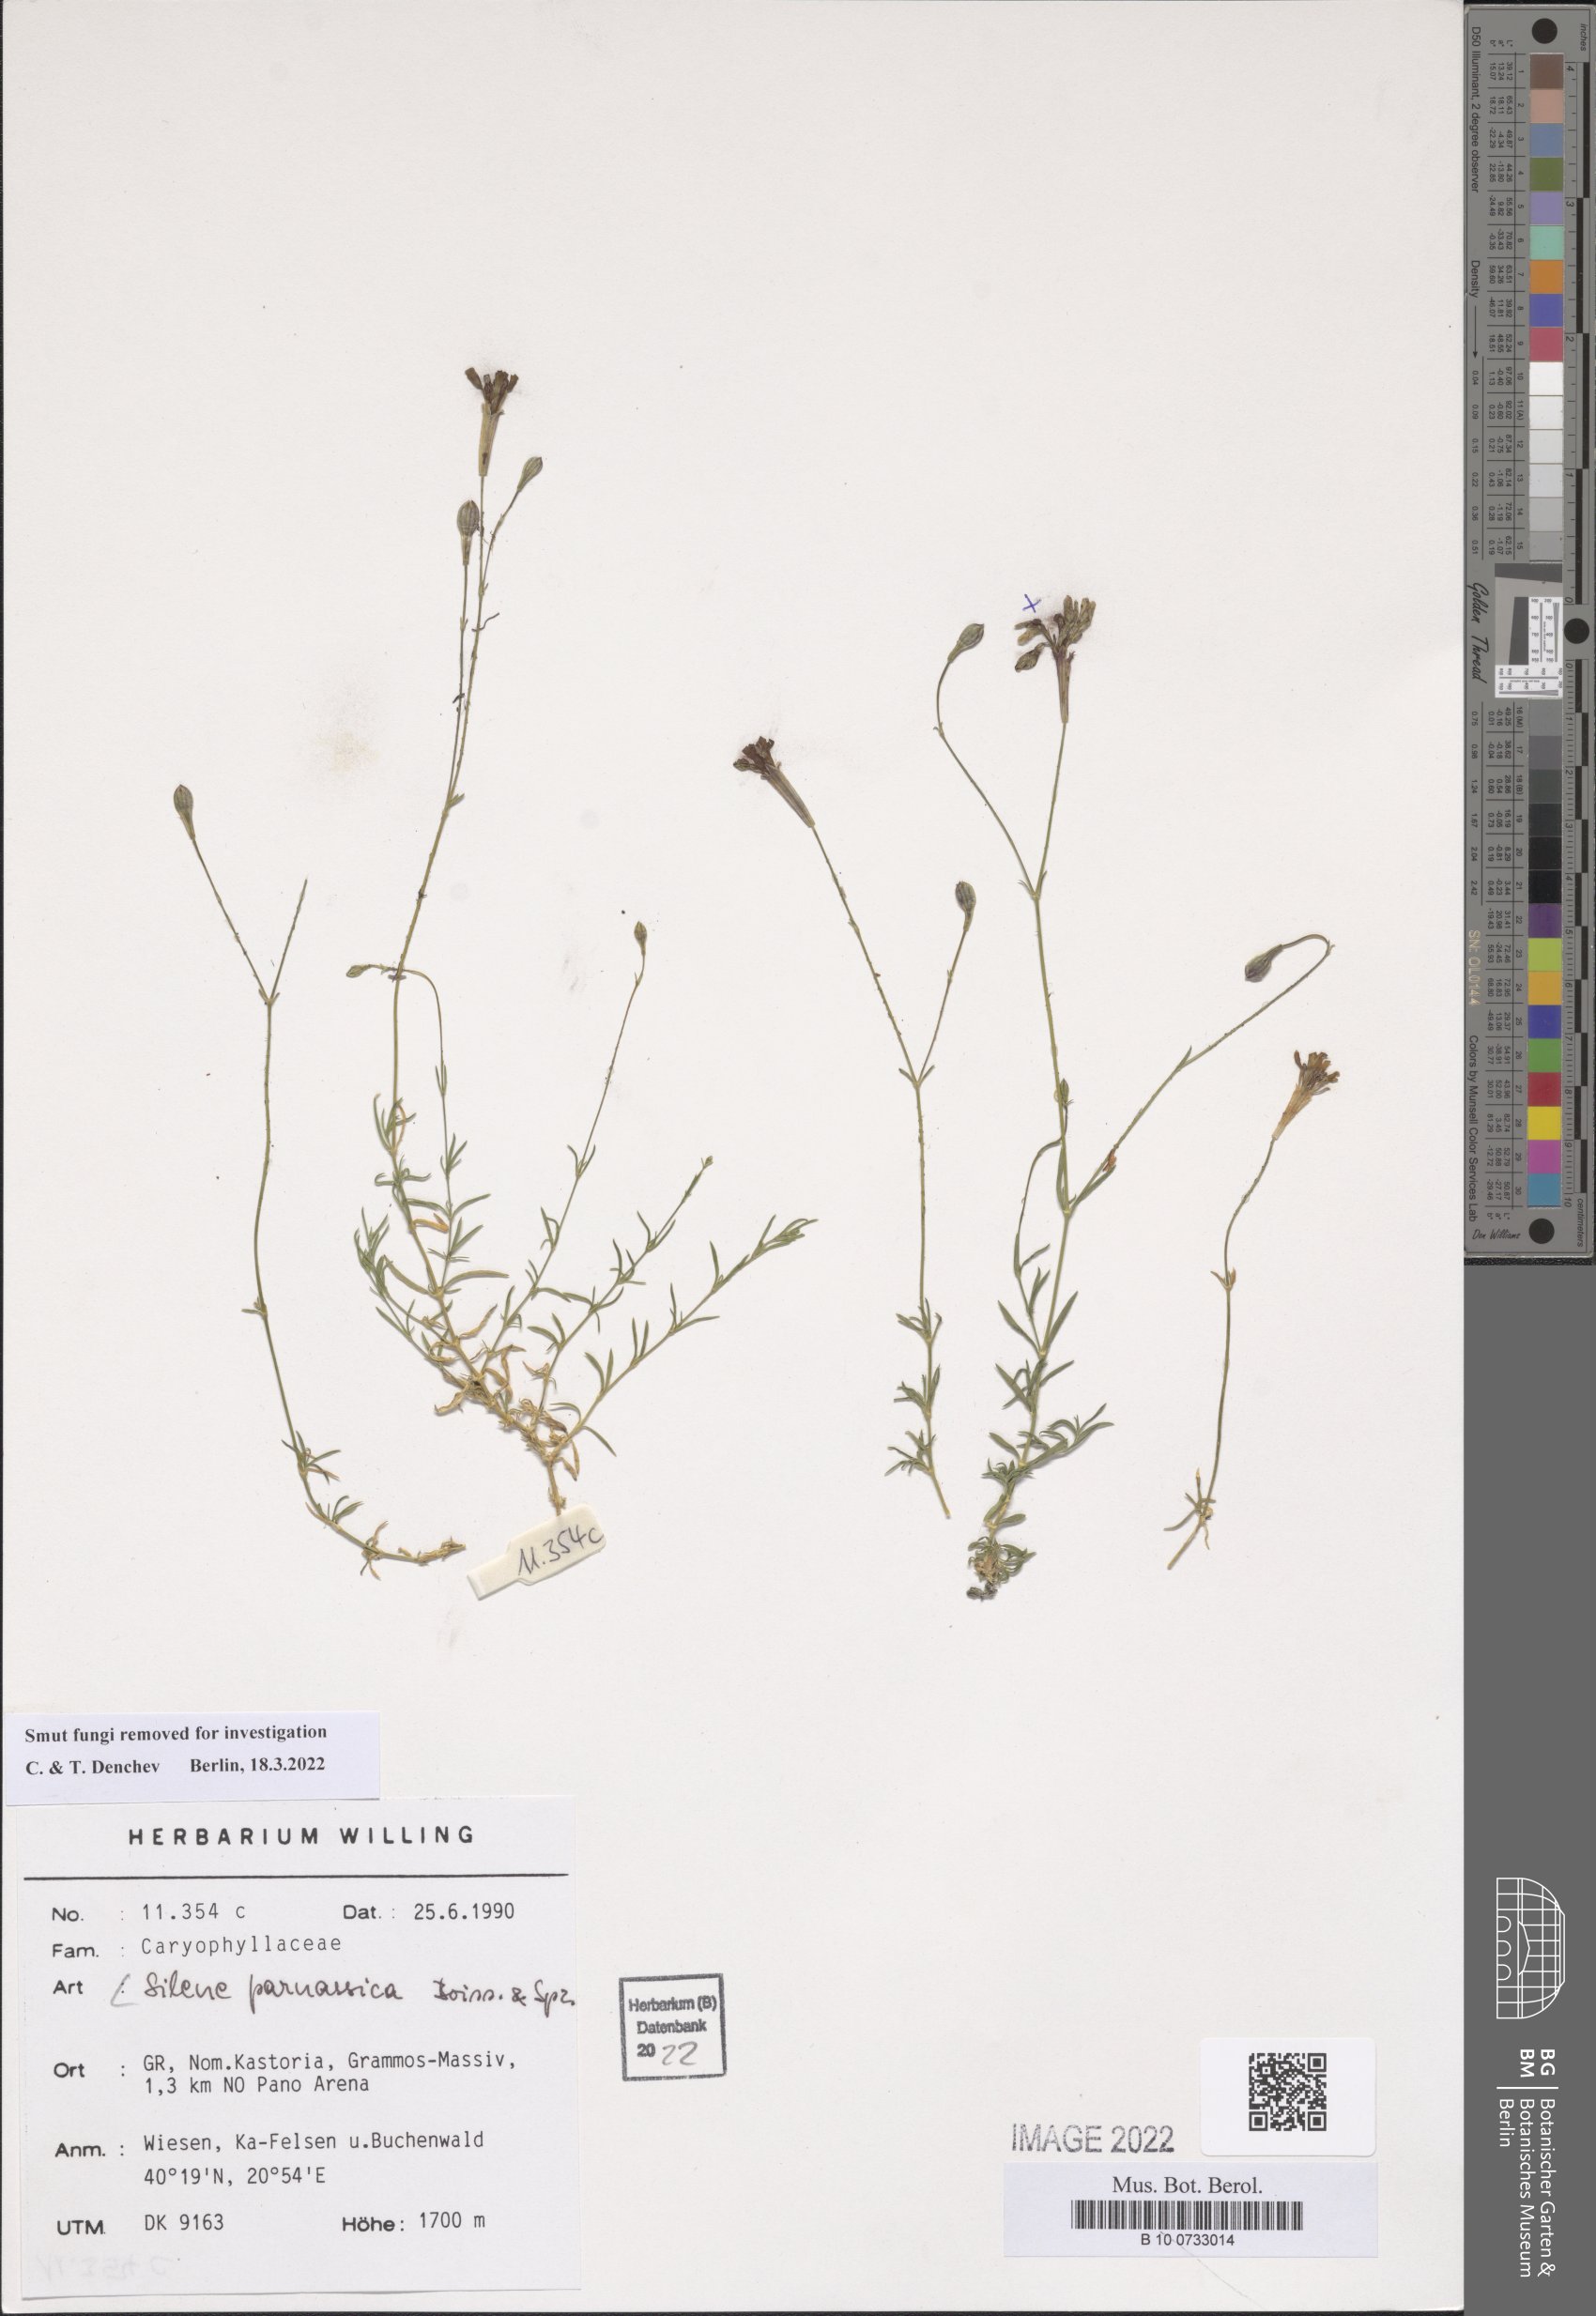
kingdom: Plantae
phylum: Tracheophyta
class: Magnoliopsida
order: Caryophyllales
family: Caryophyllaceae
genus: Silene
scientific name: Silene parnassica
